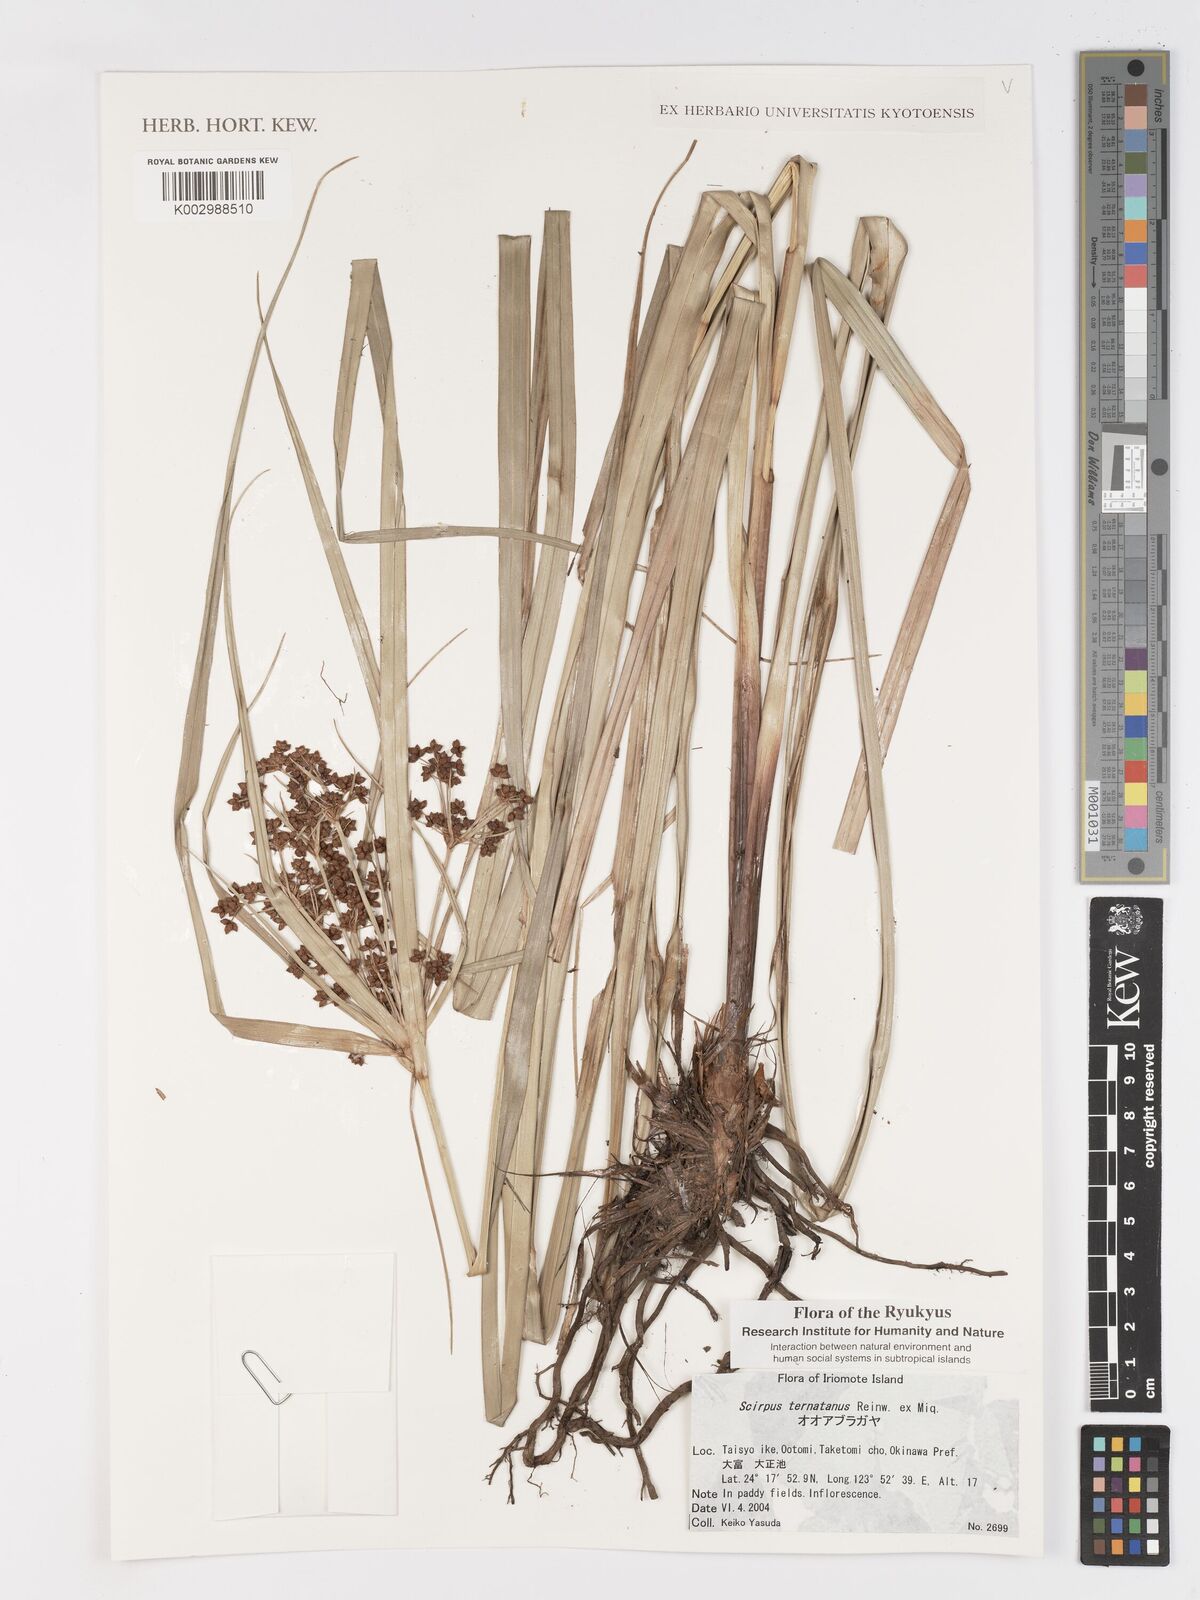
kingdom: Plantae
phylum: Tracheophyta
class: Liliopsida
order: Poales
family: Cyperaceae
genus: Schoenoplectus
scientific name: Schoenoplectus
